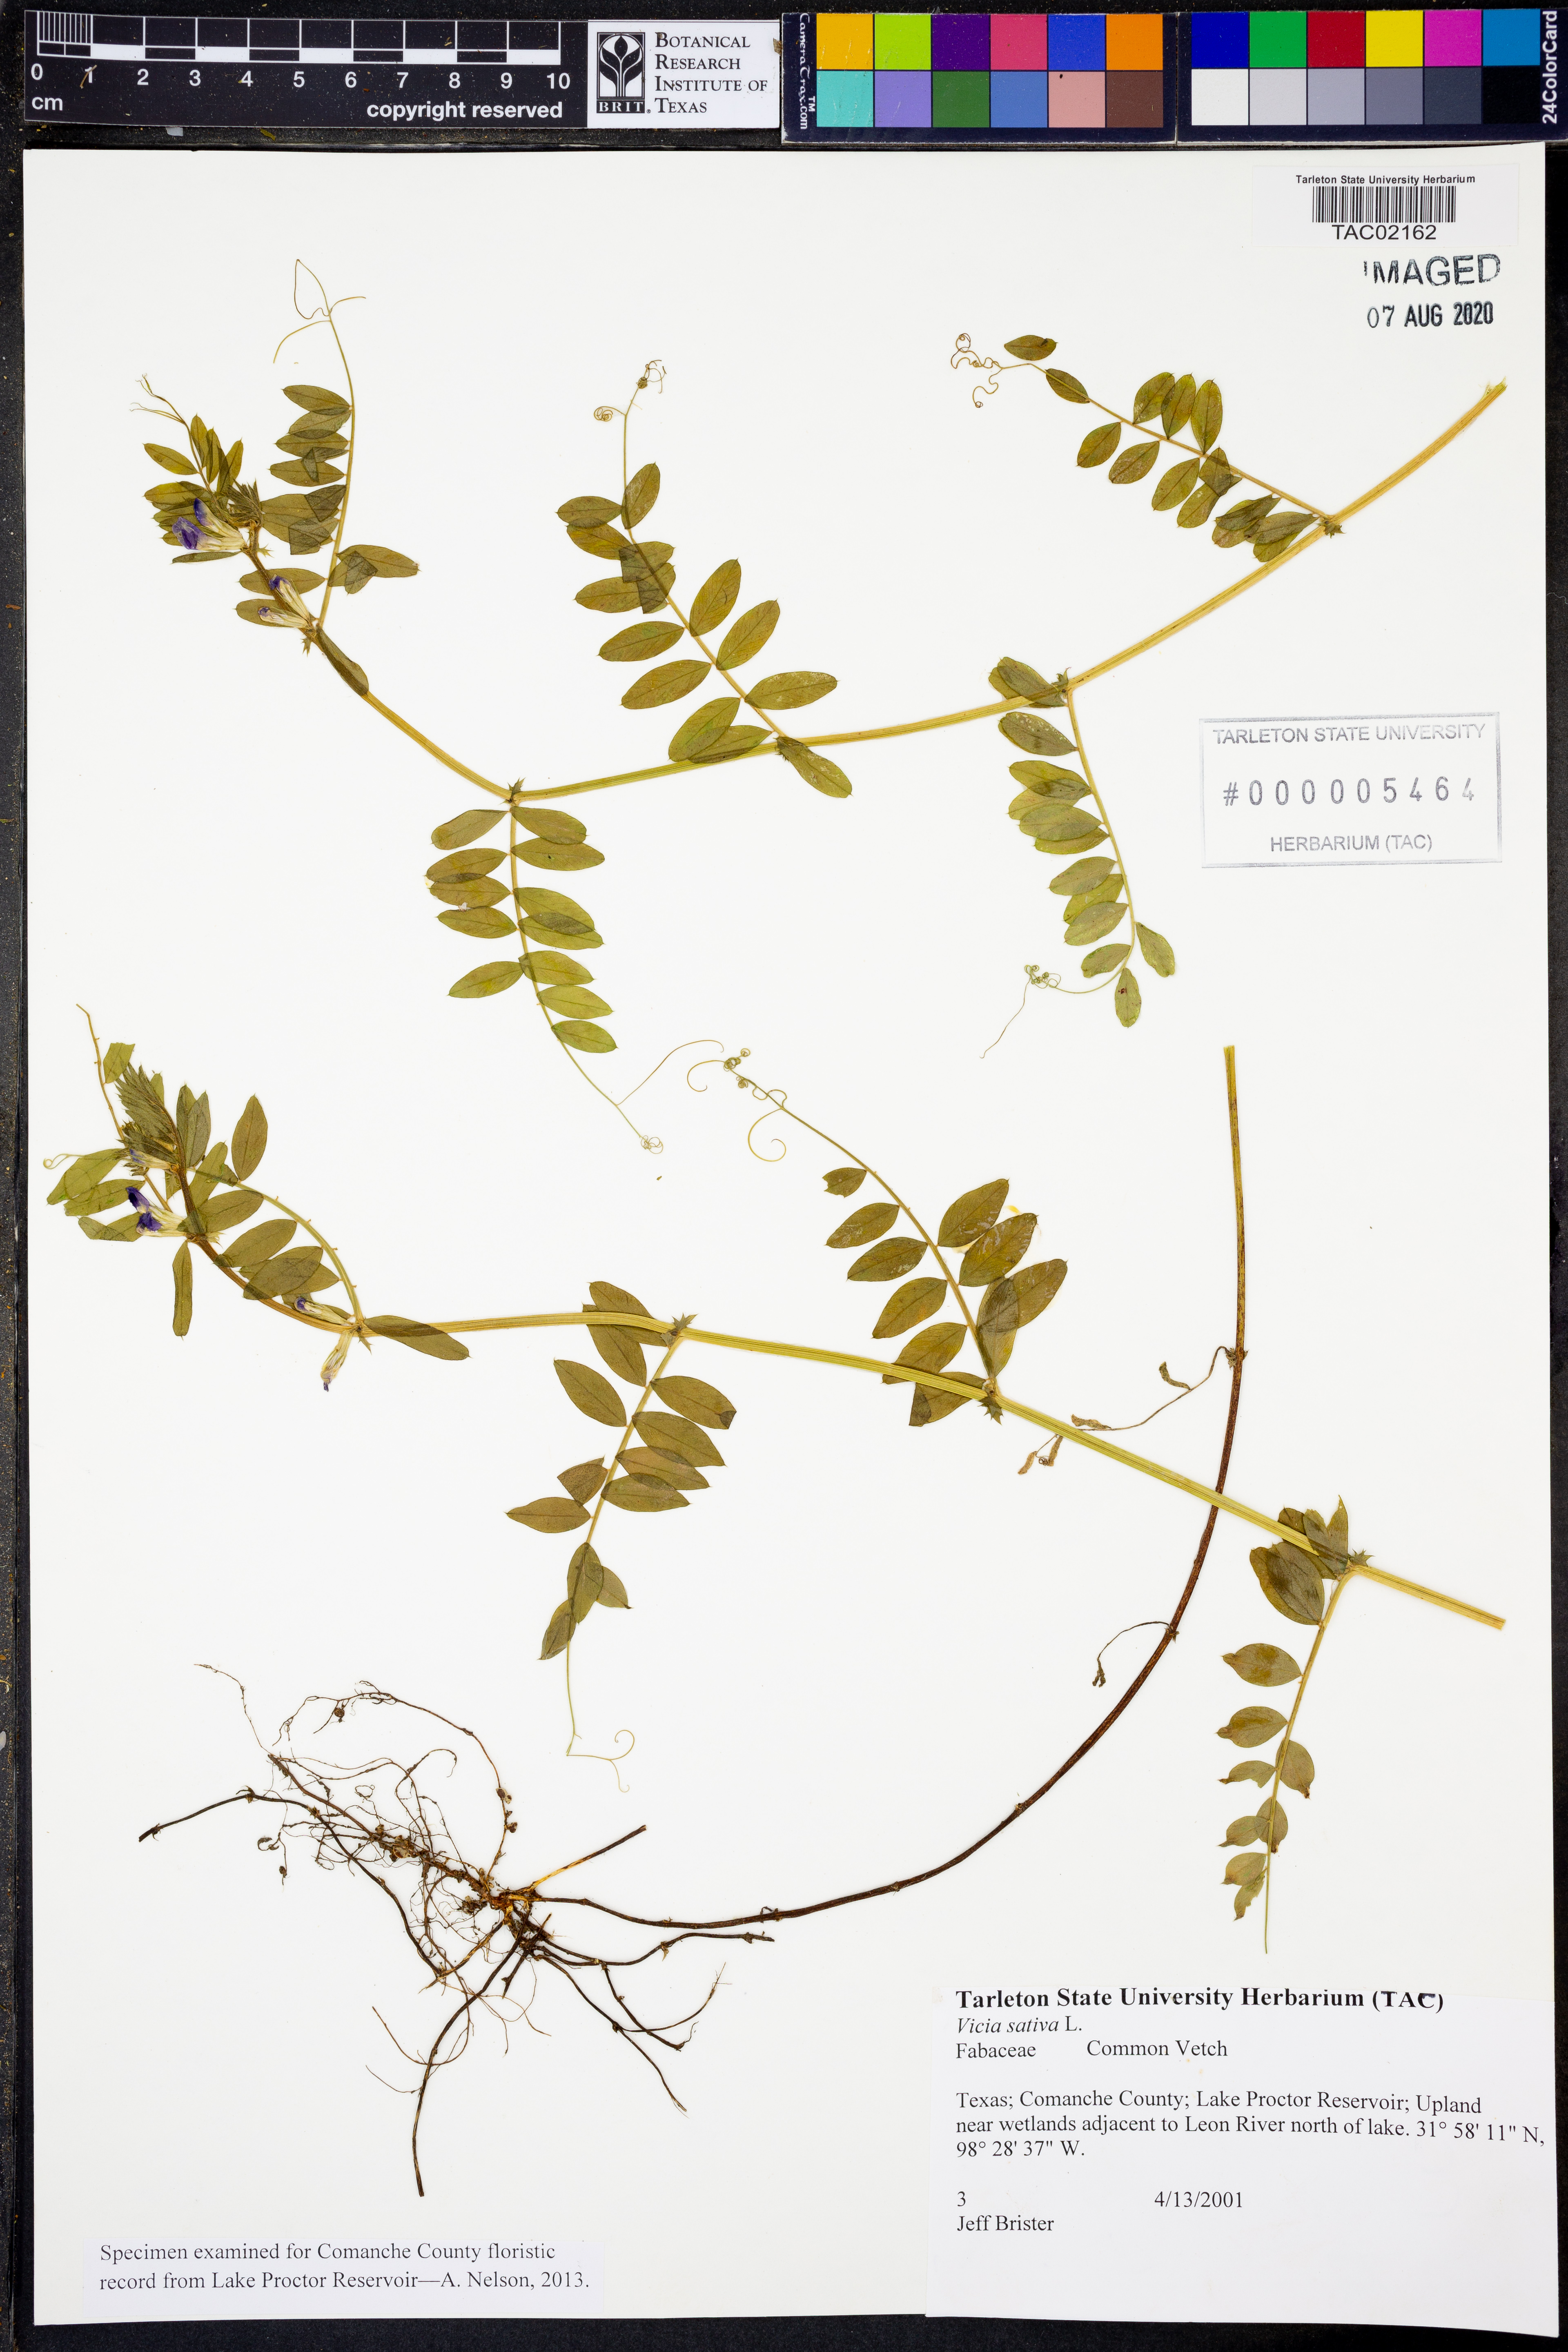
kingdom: Plantae
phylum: Tracheophyta
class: Magnoliopsida
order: Fabales
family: Fabaceae
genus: Vicia
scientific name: Vicia sativa
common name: Garden vetch
